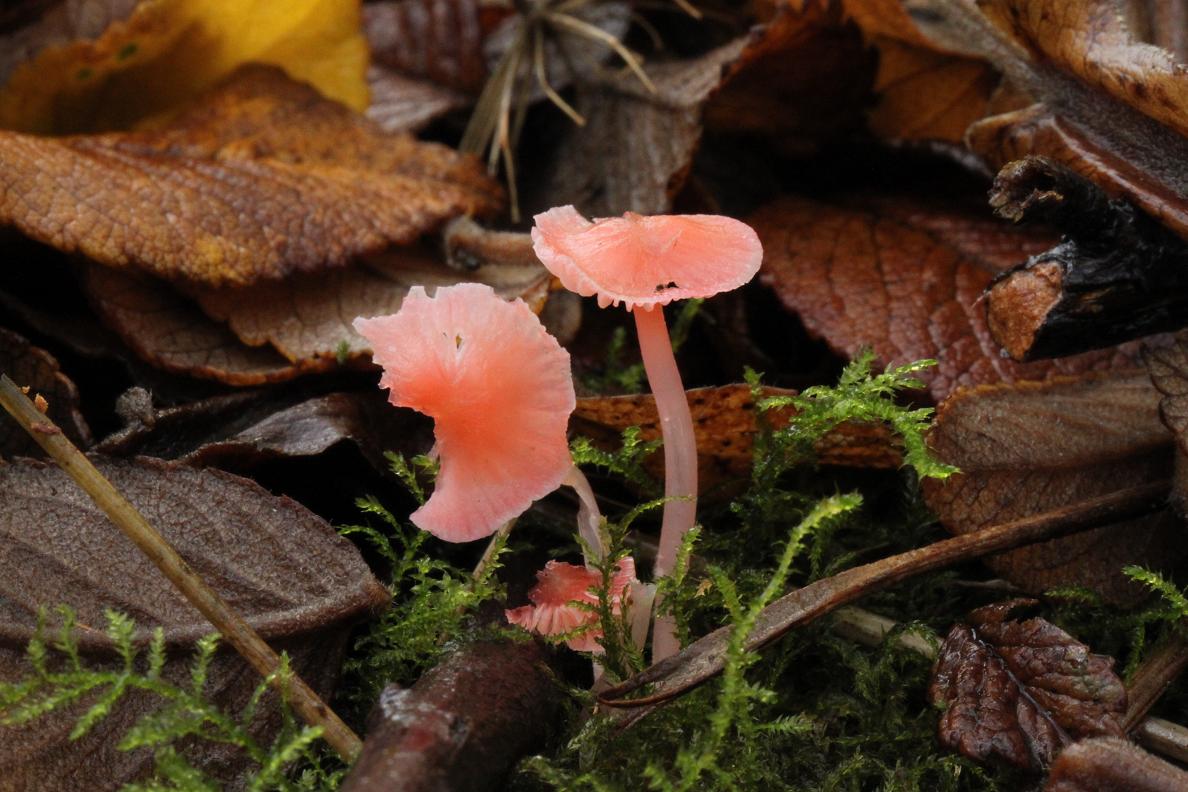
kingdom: Fungi
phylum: Basidiomycota
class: Agaricomycetes
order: Agaricales
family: Mycenaceae
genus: Mycena
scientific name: Mycena coccinea
